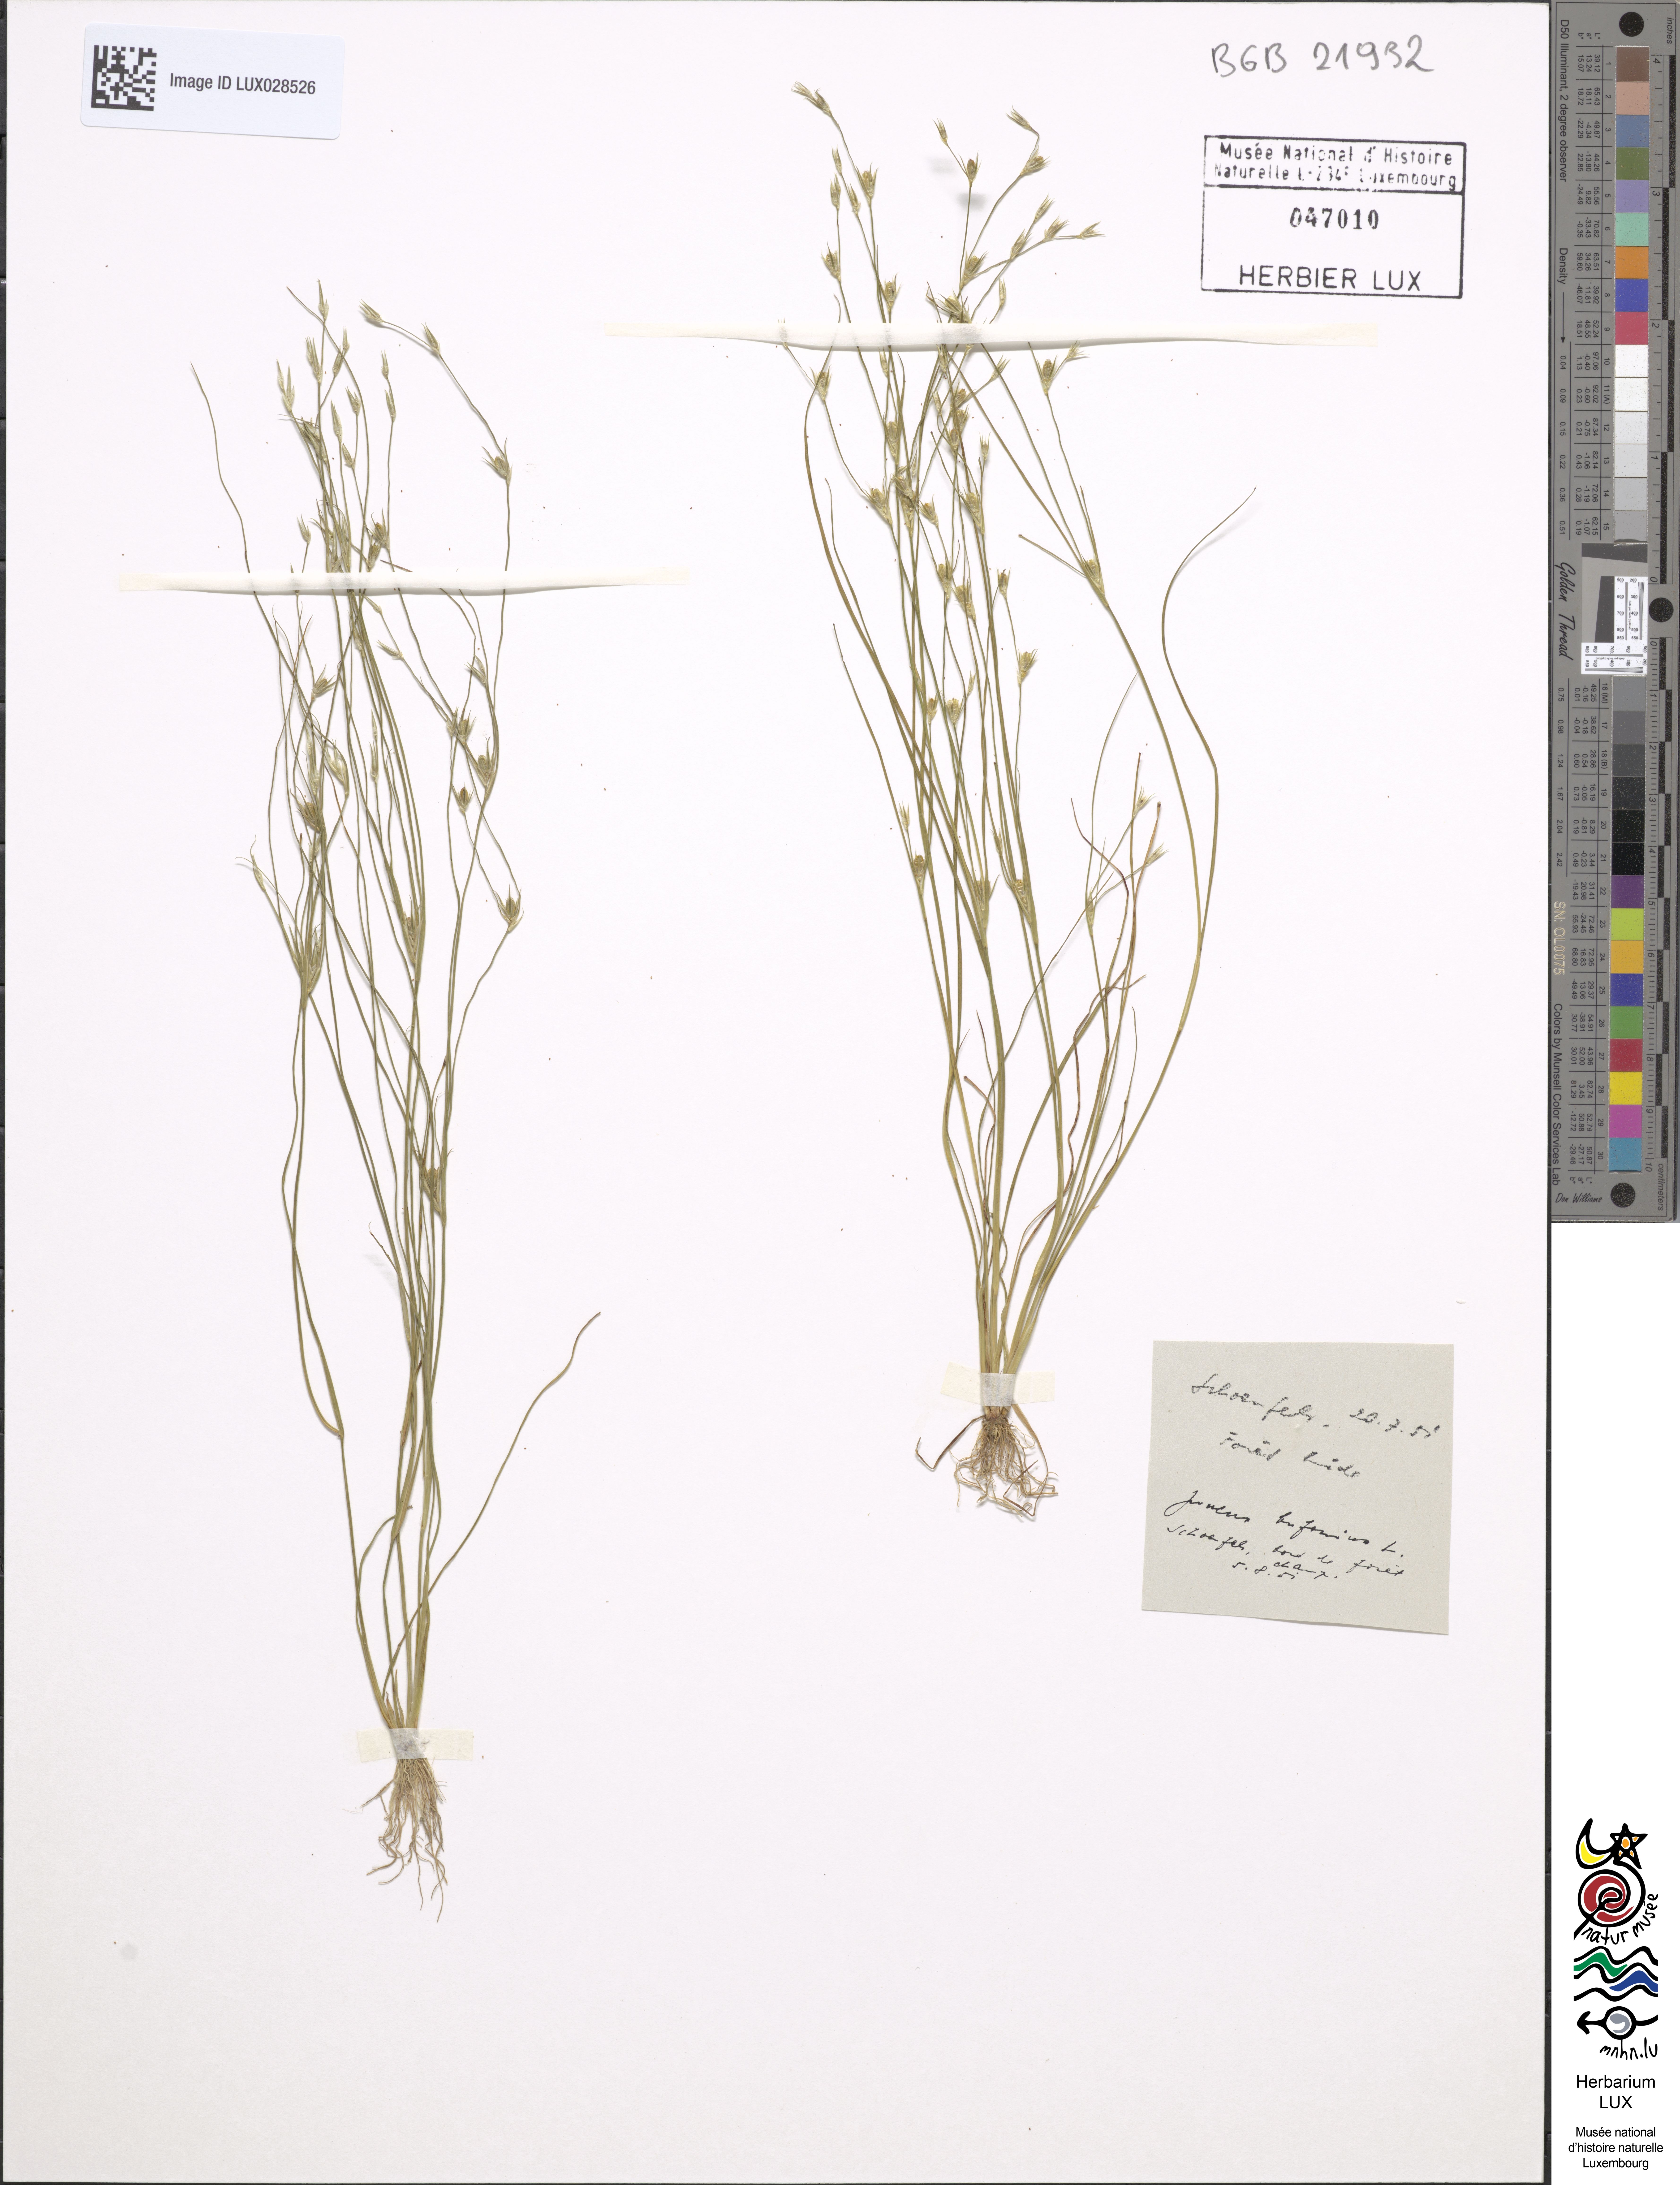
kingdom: Plantae
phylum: Tracheophyta
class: Liliopsida
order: Poales
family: Juncaceae
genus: Juncus
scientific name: Juncus bufonius
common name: Toad rush
